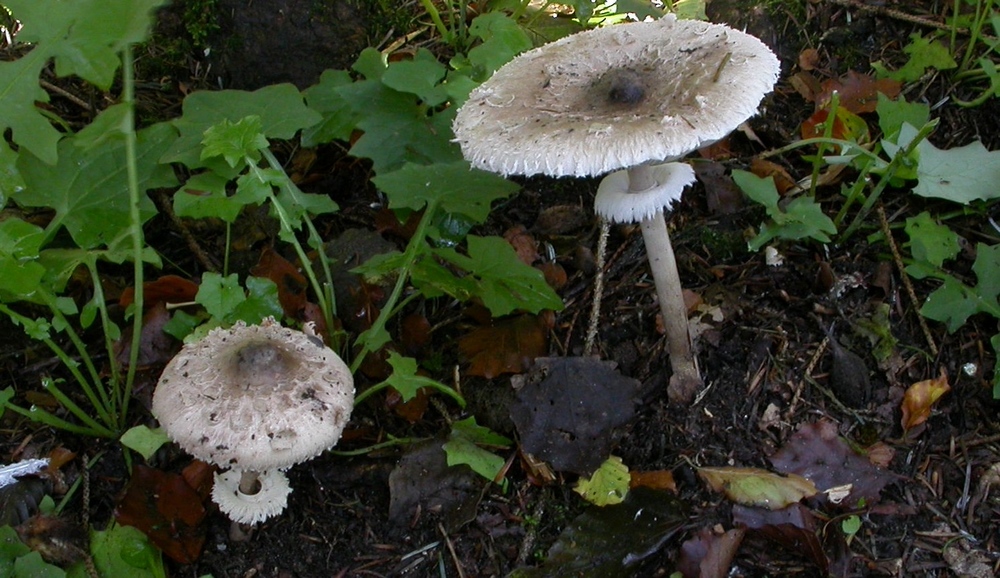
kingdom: Fungi
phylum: Basidiomycota
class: Agaricomycetes
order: Agaricales
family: Agaricaceae
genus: Macrolepiota
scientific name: Macrolepiota mastoidea
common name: puklet kæmpeparasolhat
